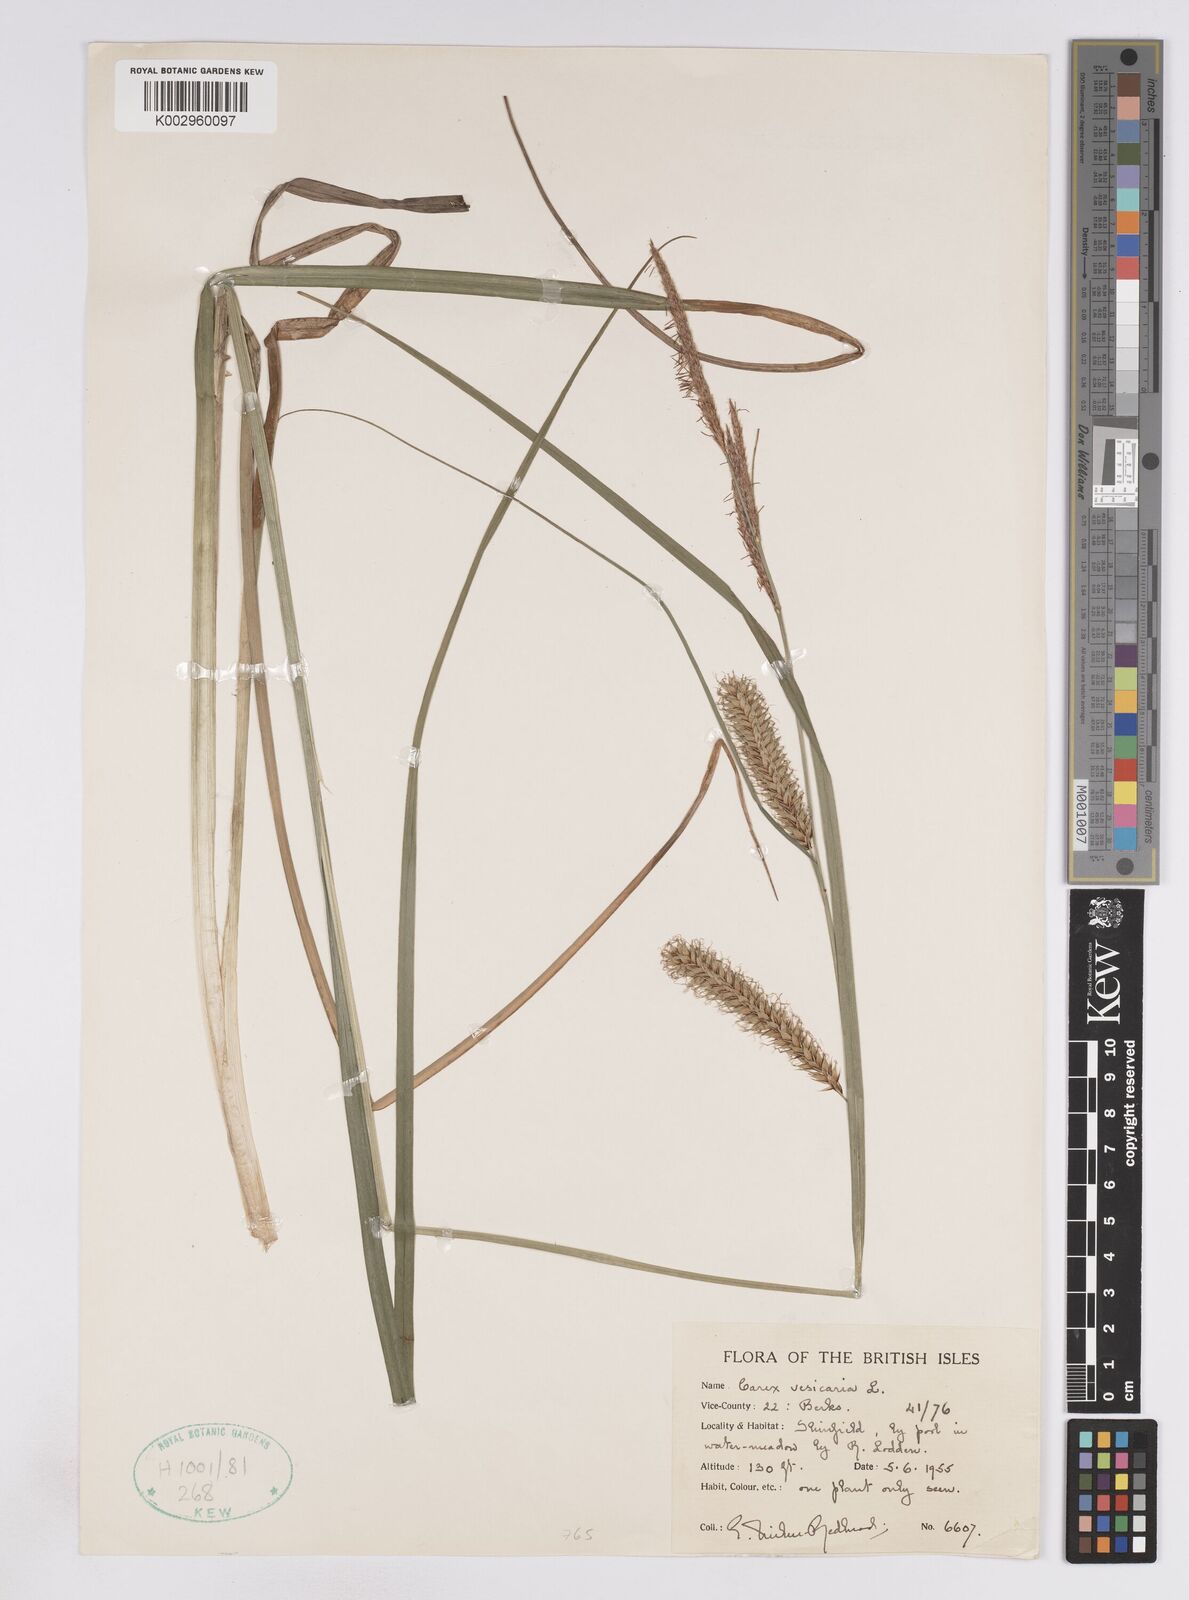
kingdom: Plantae
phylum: Tracheophyta
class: Liliopsida
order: Poales
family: Cyperaceae
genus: Carex
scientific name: Carex vesicaria
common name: Bladder-sedge
